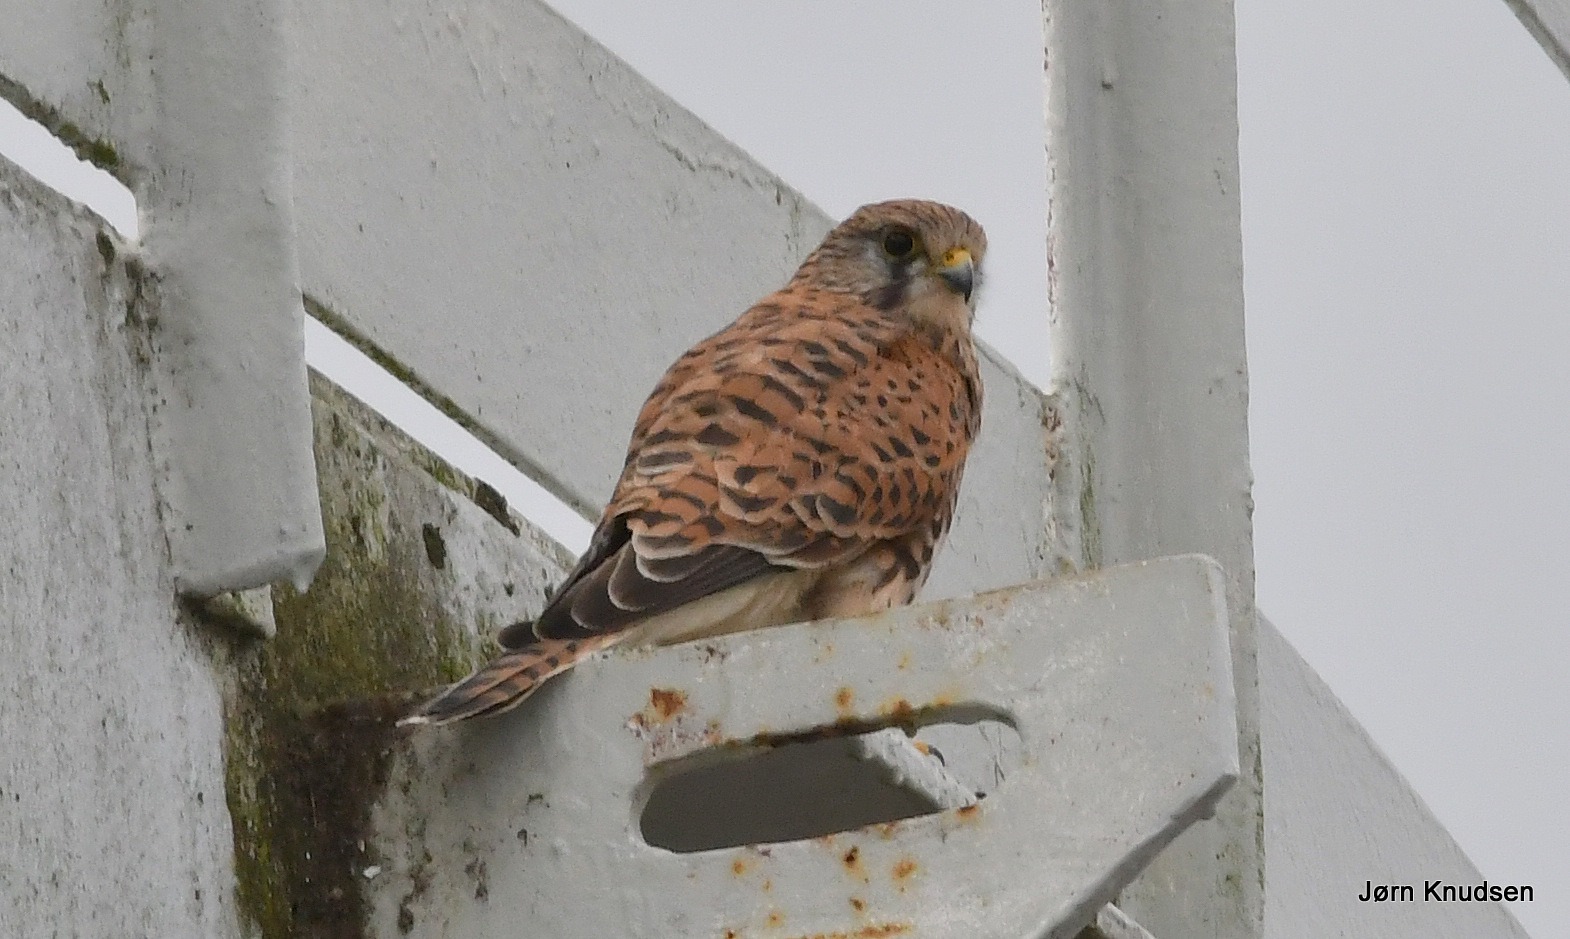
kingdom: Animalia
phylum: Chordata
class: Aves
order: Falconiformes
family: Falconidae
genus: Falco
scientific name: Falco tinnunculus
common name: Tårnfalk
